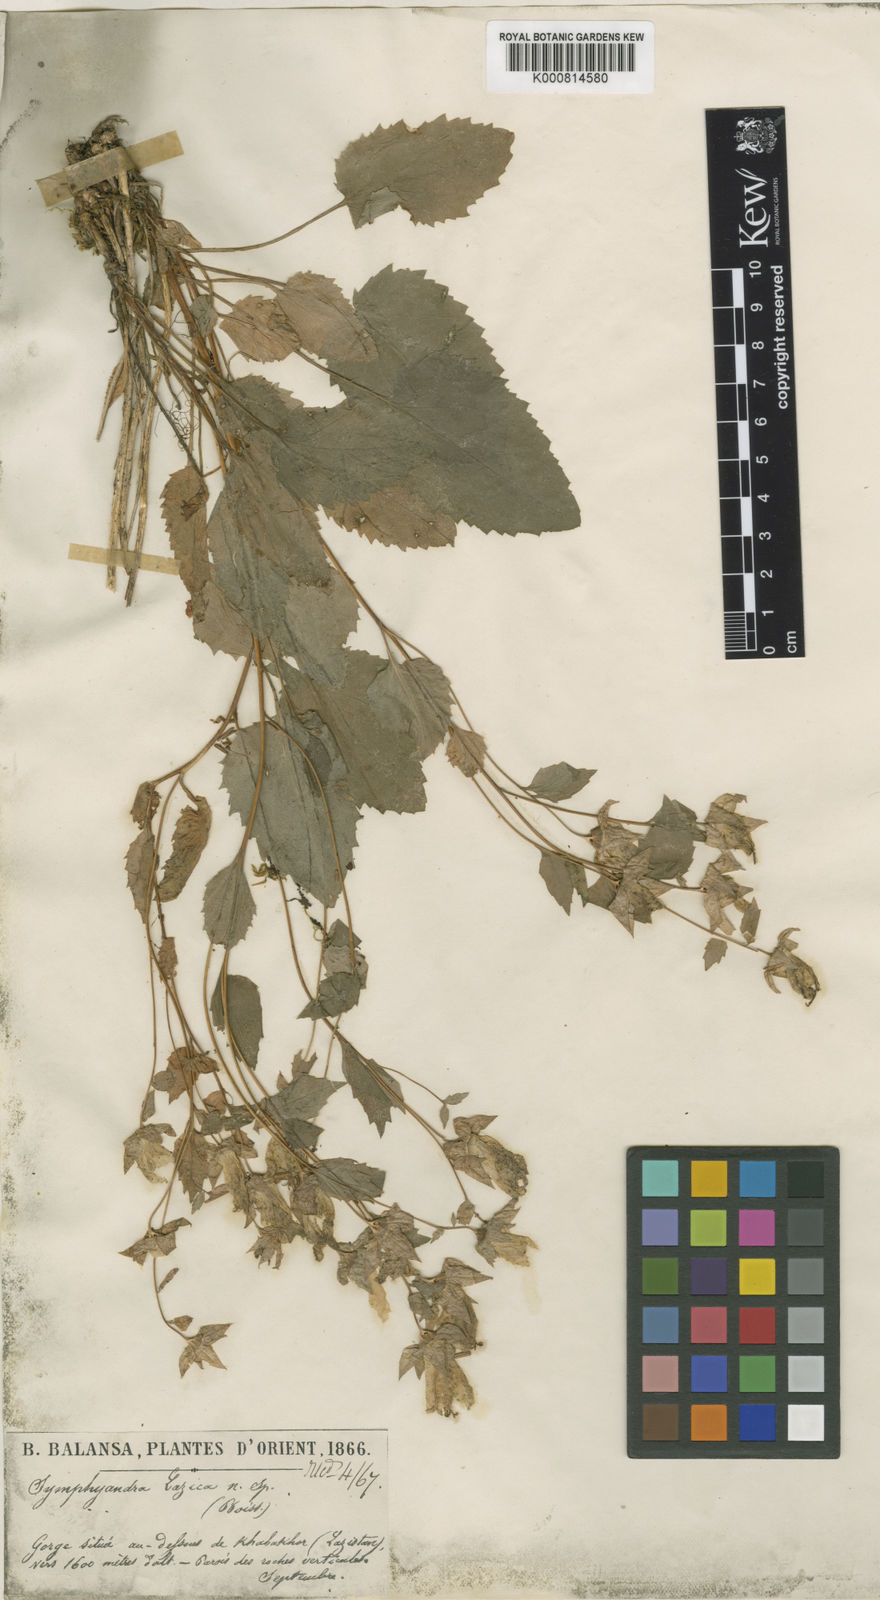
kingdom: Plantae
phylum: Tracheophyta
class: Magnoliopsida
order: Asterales
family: Campanulaceae
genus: Campanula
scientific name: Campanula lazica
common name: Lazian campanula
